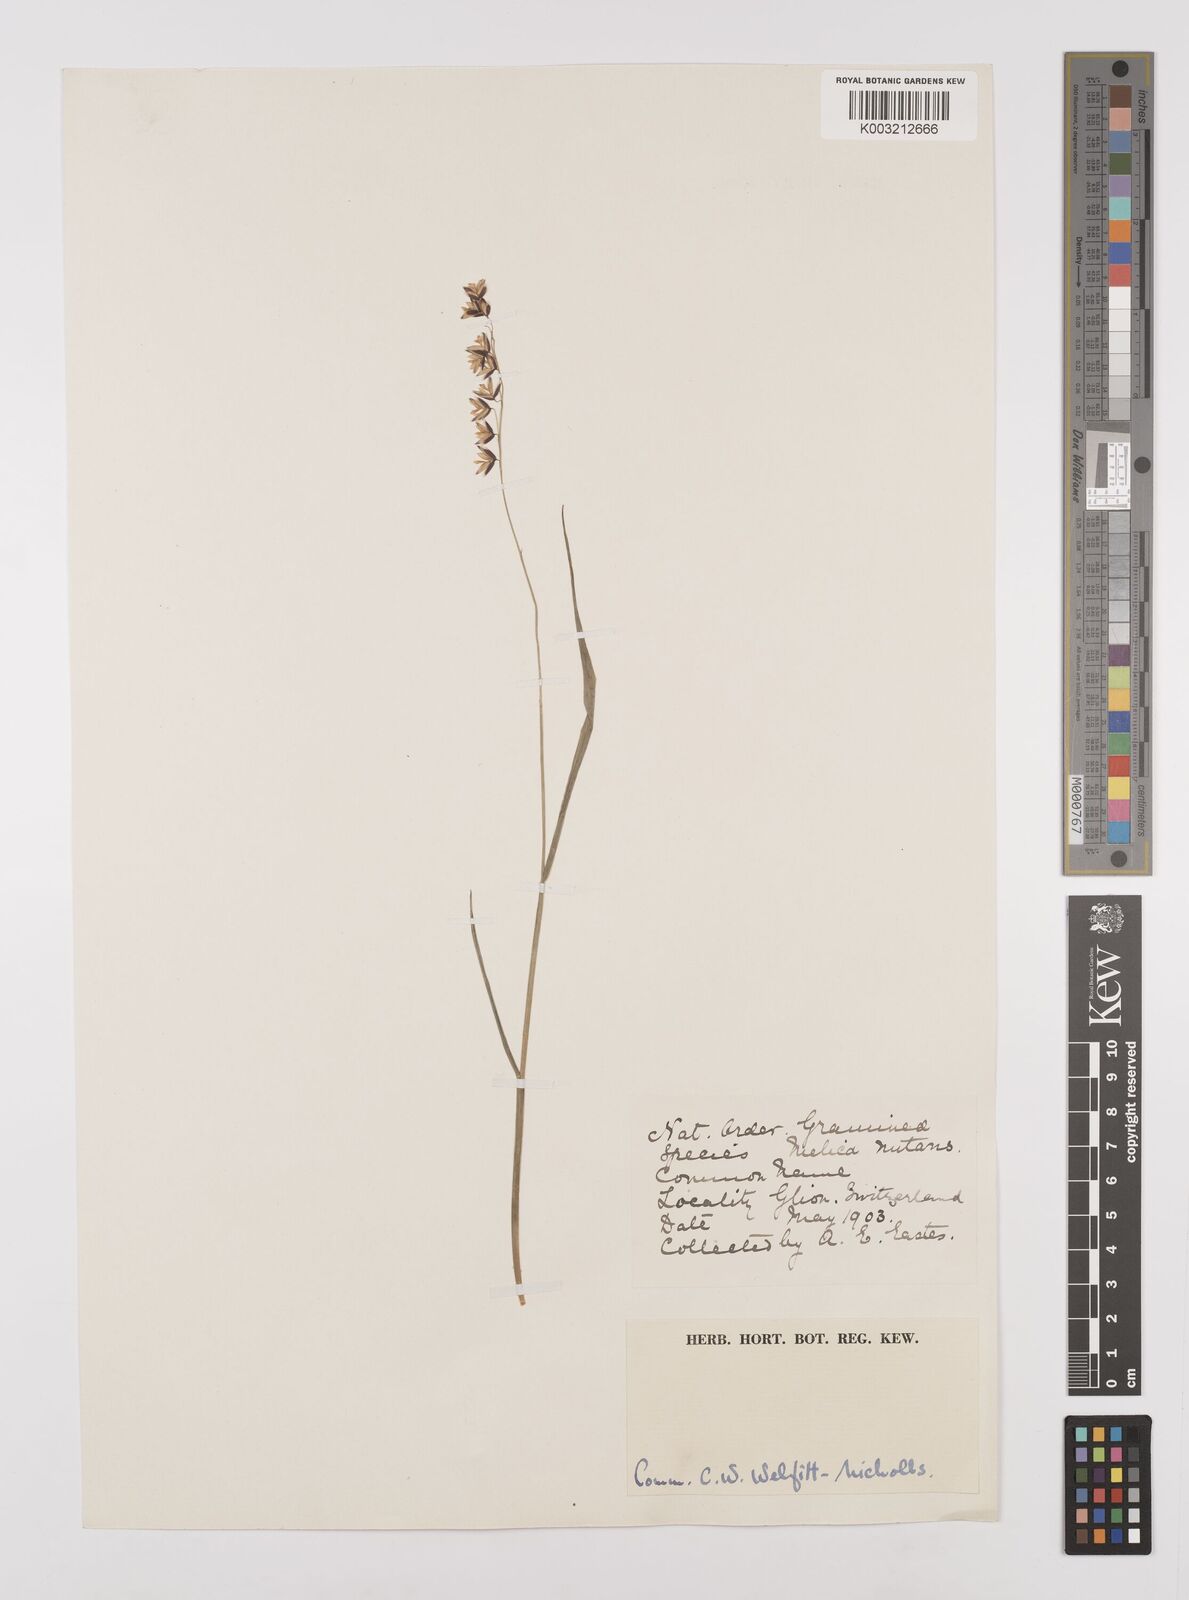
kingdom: Plantae
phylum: Tracheophyta
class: Liliopsida
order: Poales
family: Poaceae
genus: Melica
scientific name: Melica
